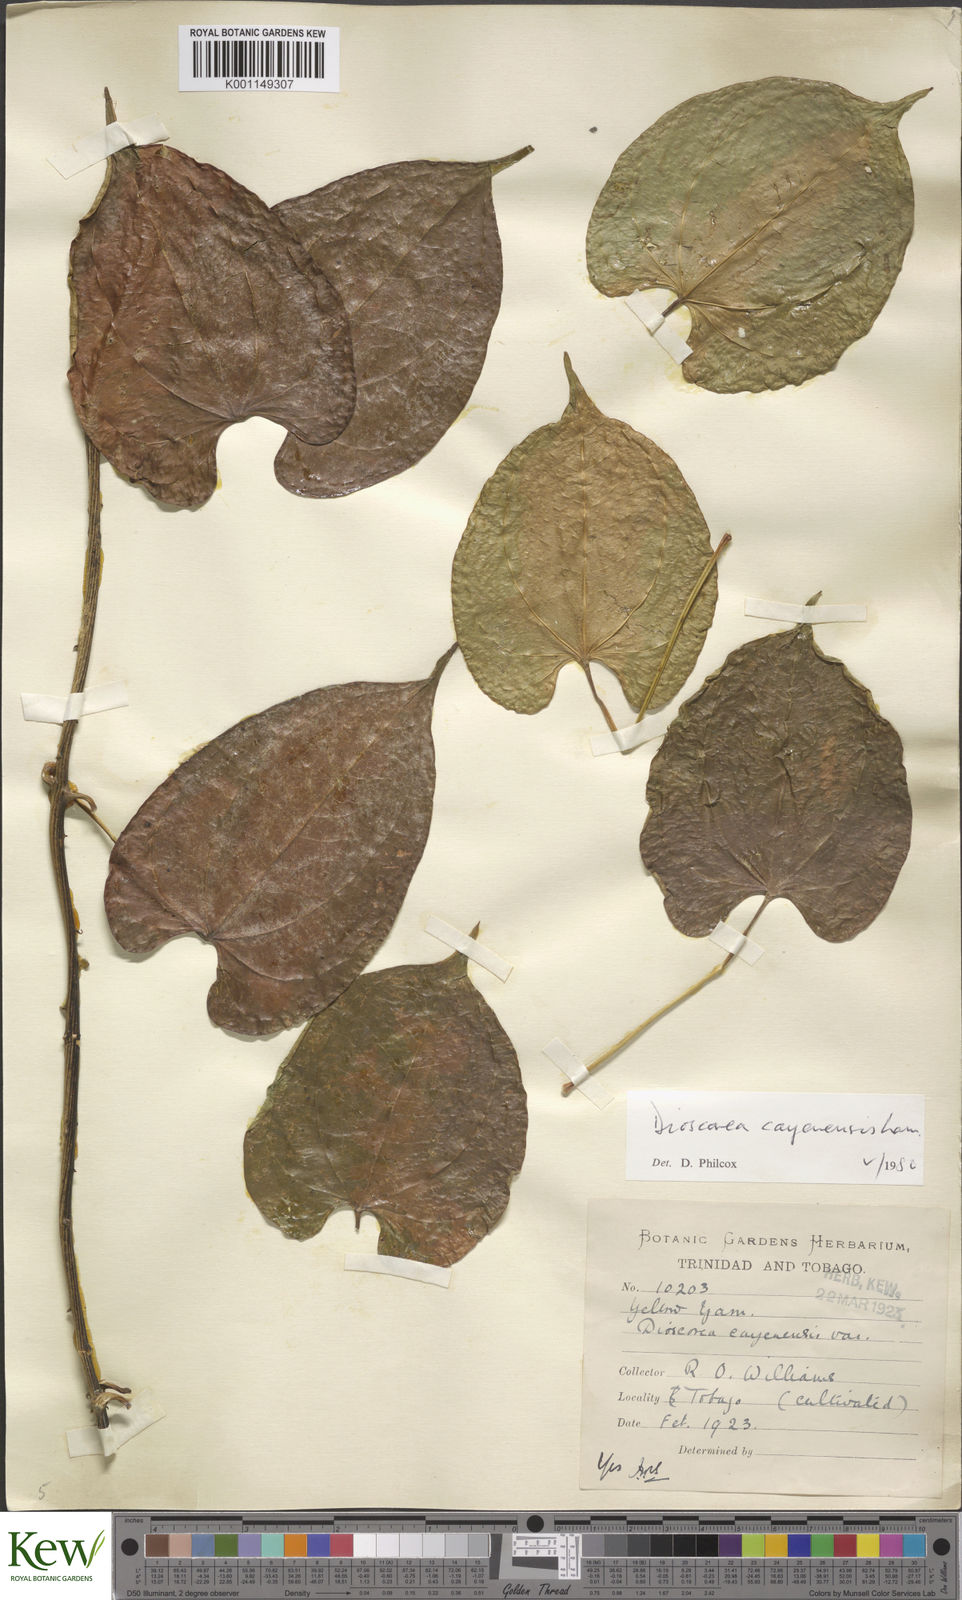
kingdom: Plantae
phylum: Tracheophyta
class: Liliopsida
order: Dioscoreales
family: Dioscoreaceae
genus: Dioscorea
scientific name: Dioscorea cayenensis
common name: Attoto yam
